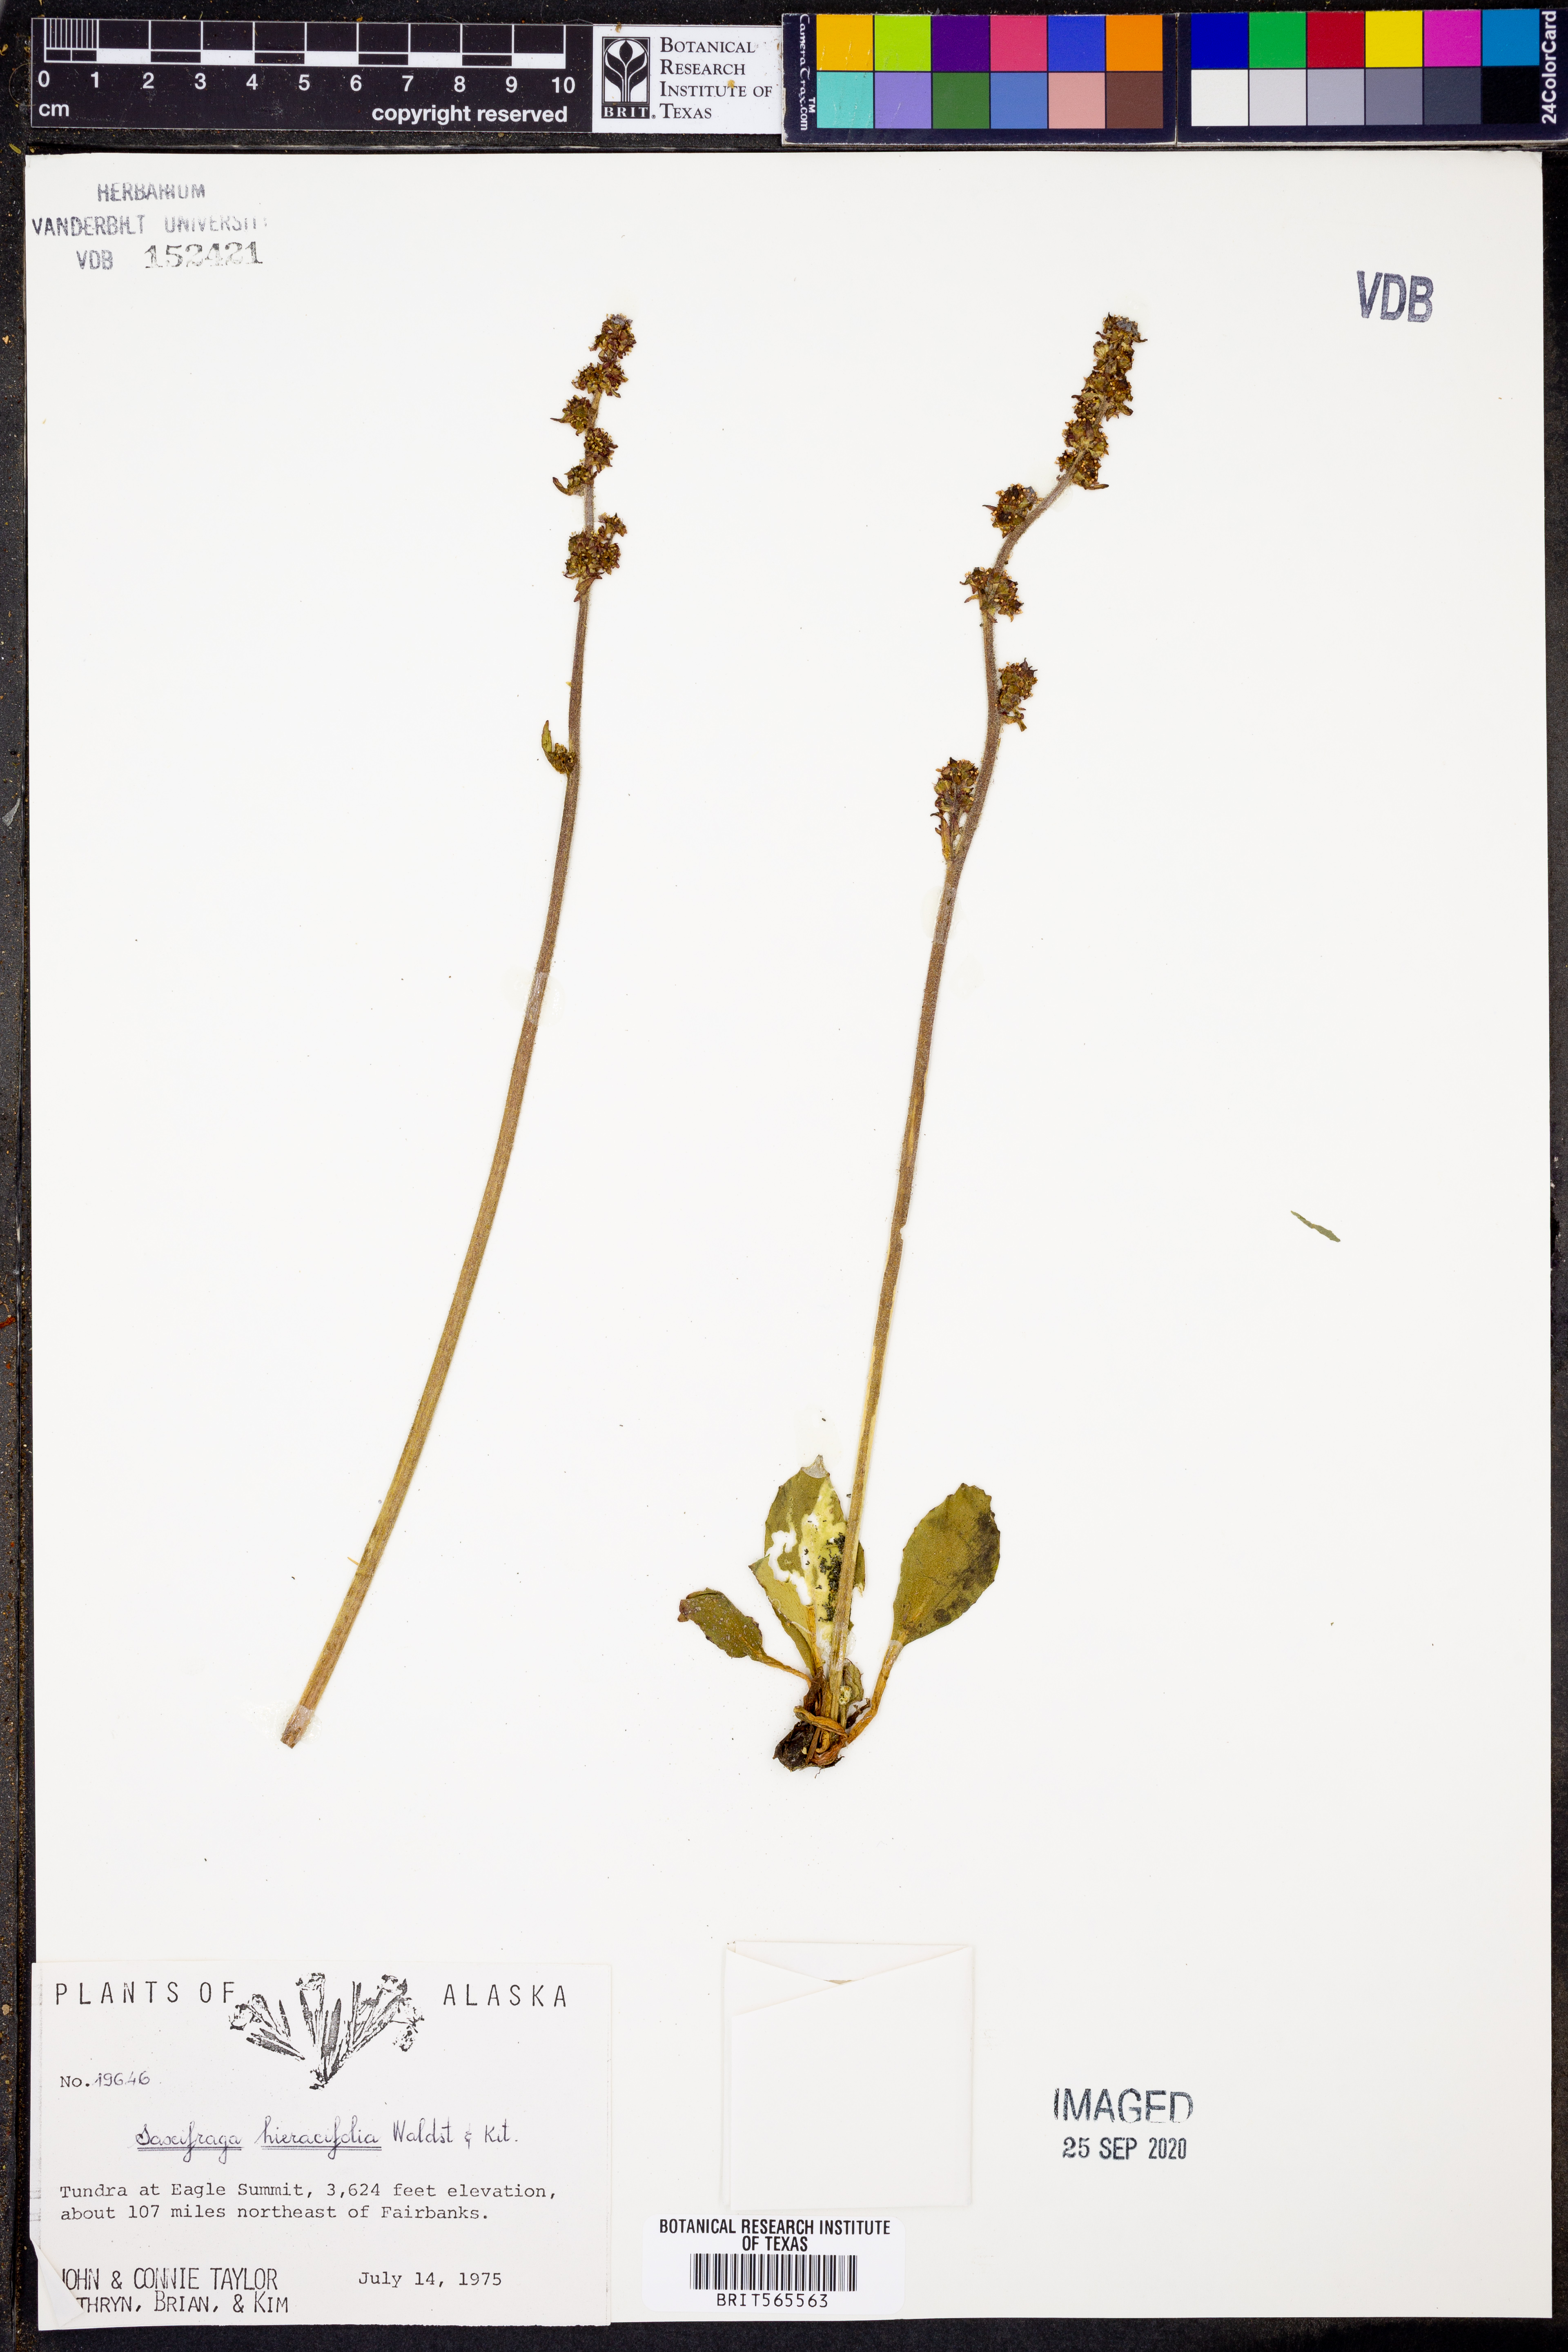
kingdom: Plantae
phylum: Tracheophyta
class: Magnoliopsida
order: Saxifragales
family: Saxifragaceae
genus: Micranthes
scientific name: Micranthes hieraciifolia
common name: Hawkweed-leaved saxifrage
